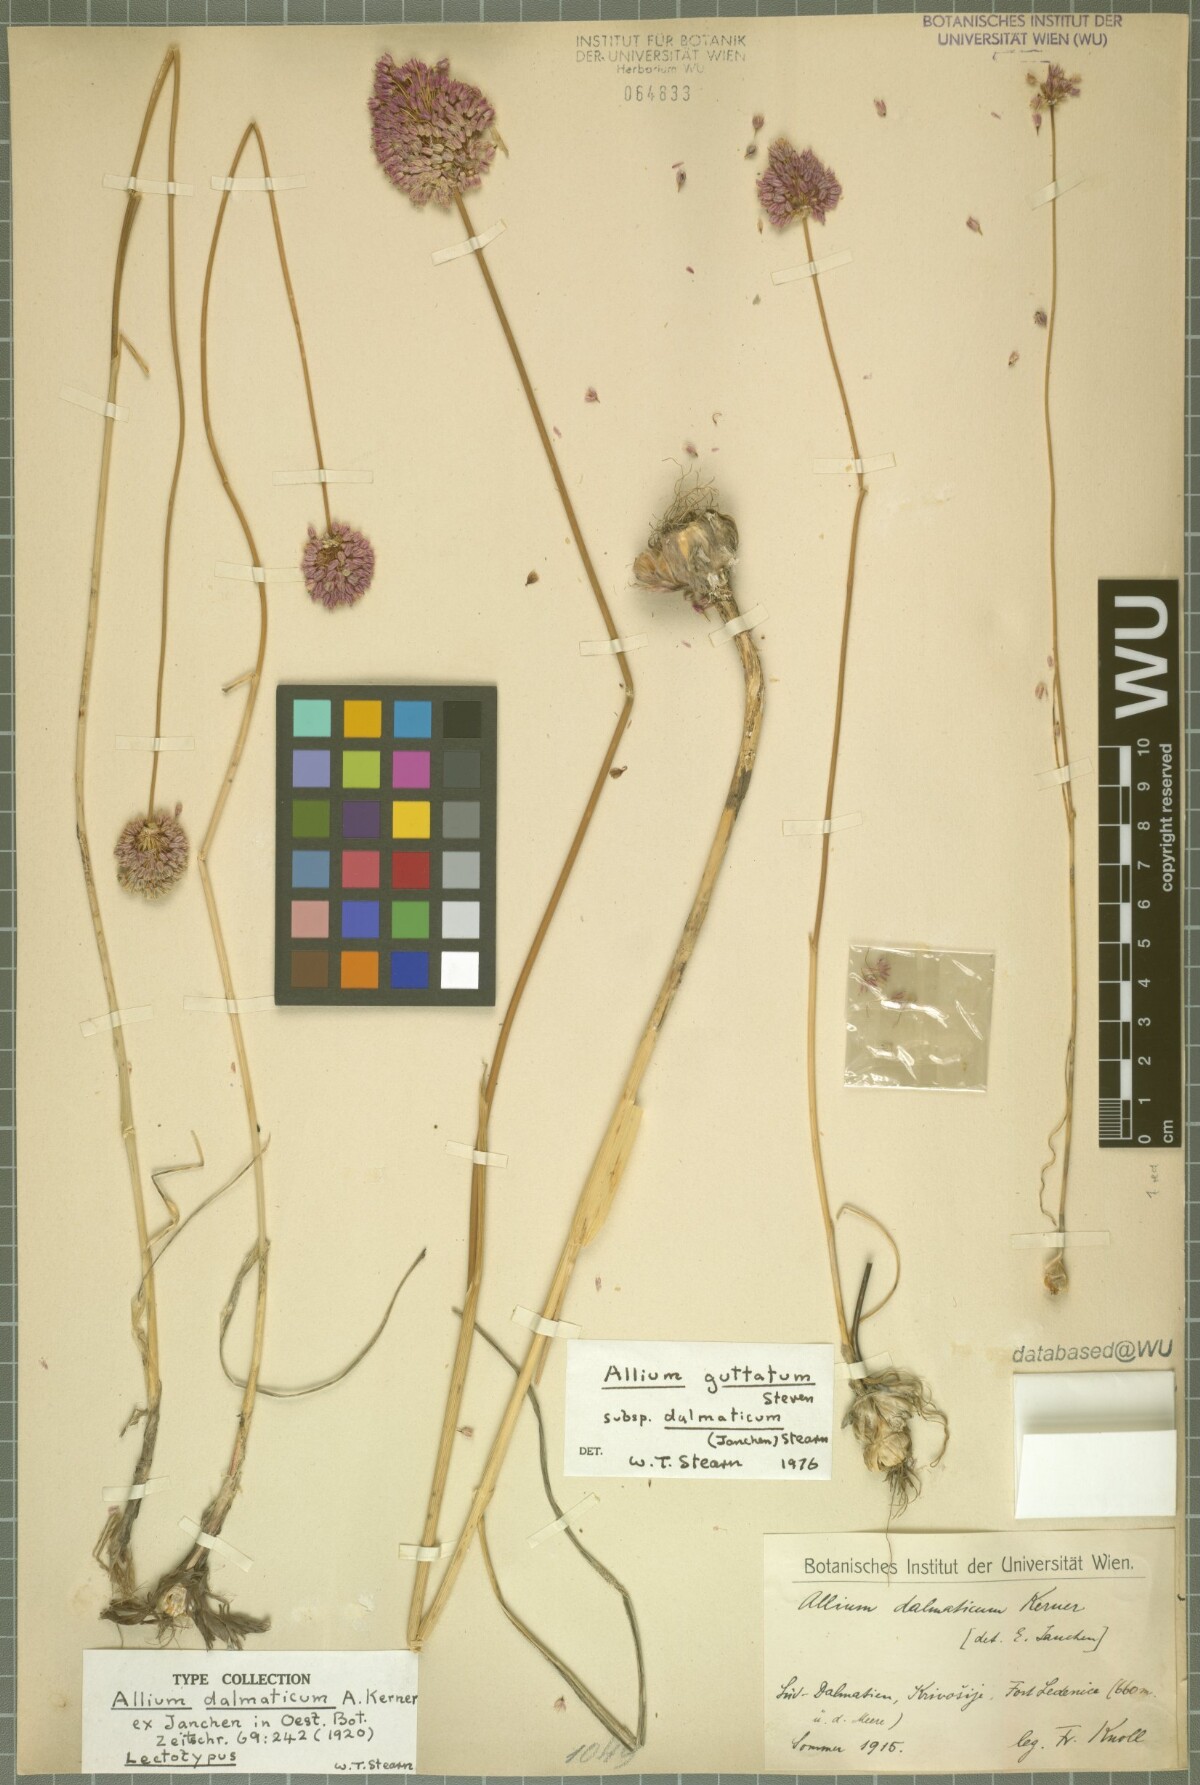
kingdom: Plantae
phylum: Tracheophyta
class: Liliopsida
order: Asparagales
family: Amaryllidaceae
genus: Allium
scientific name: Allium guttatum
